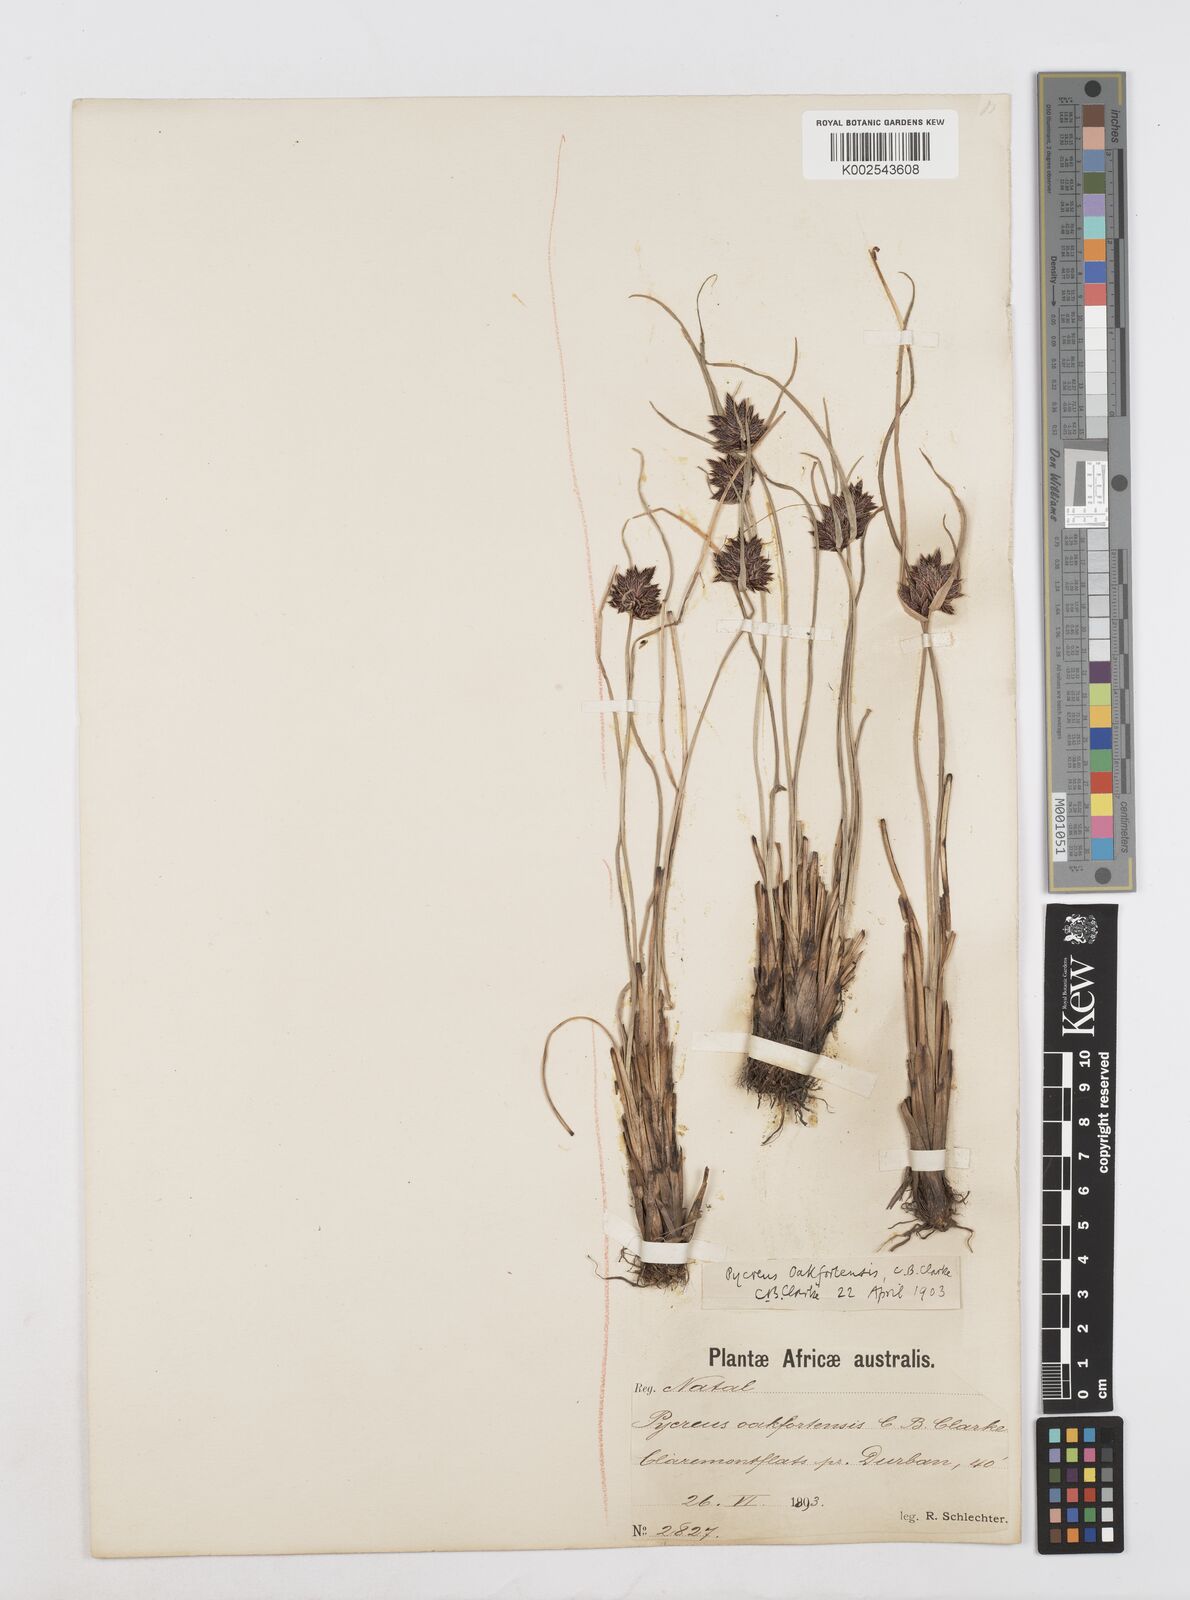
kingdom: Plantae
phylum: Tracheophyta
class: Liliopsida
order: Poales
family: Cyperaceae
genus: Cyperus
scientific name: Cyperus oakfortensis
